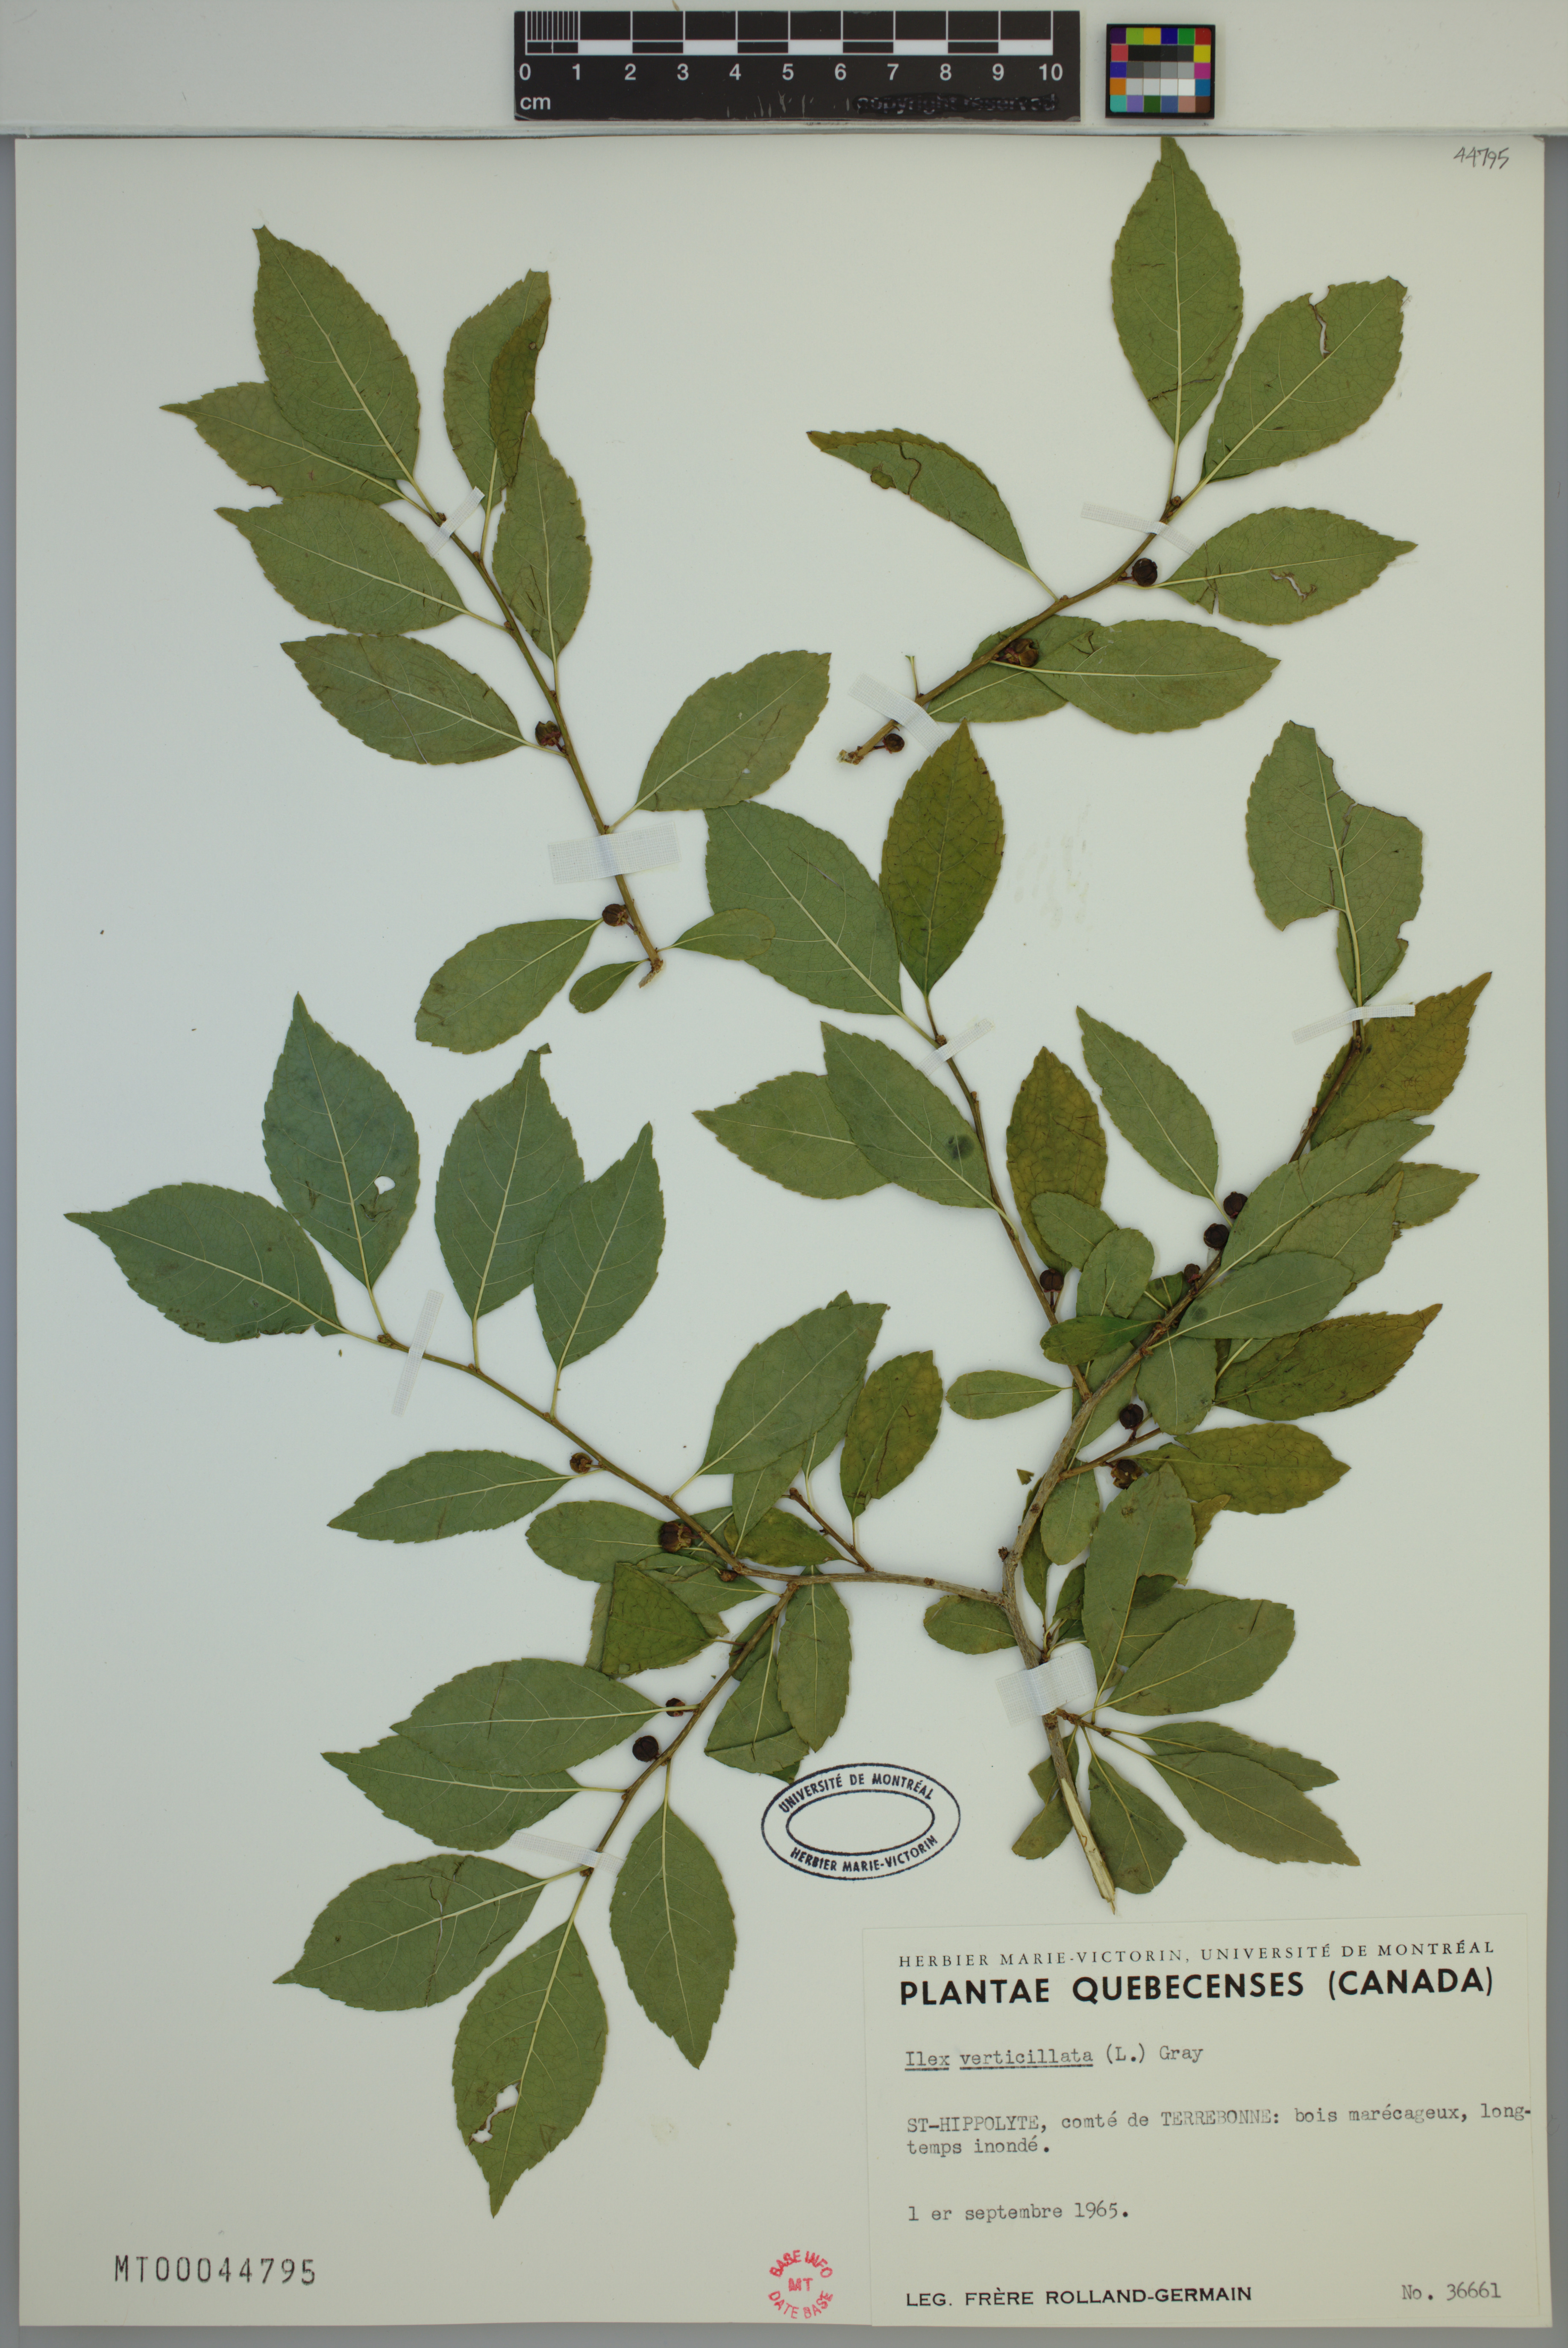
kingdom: Plantae
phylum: Tracheophyta
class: Magnoliopsida
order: Aquifoliales
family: Aquifoliaceae
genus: Ilex
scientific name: Ilex verticillata
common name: Virginia winterberry
